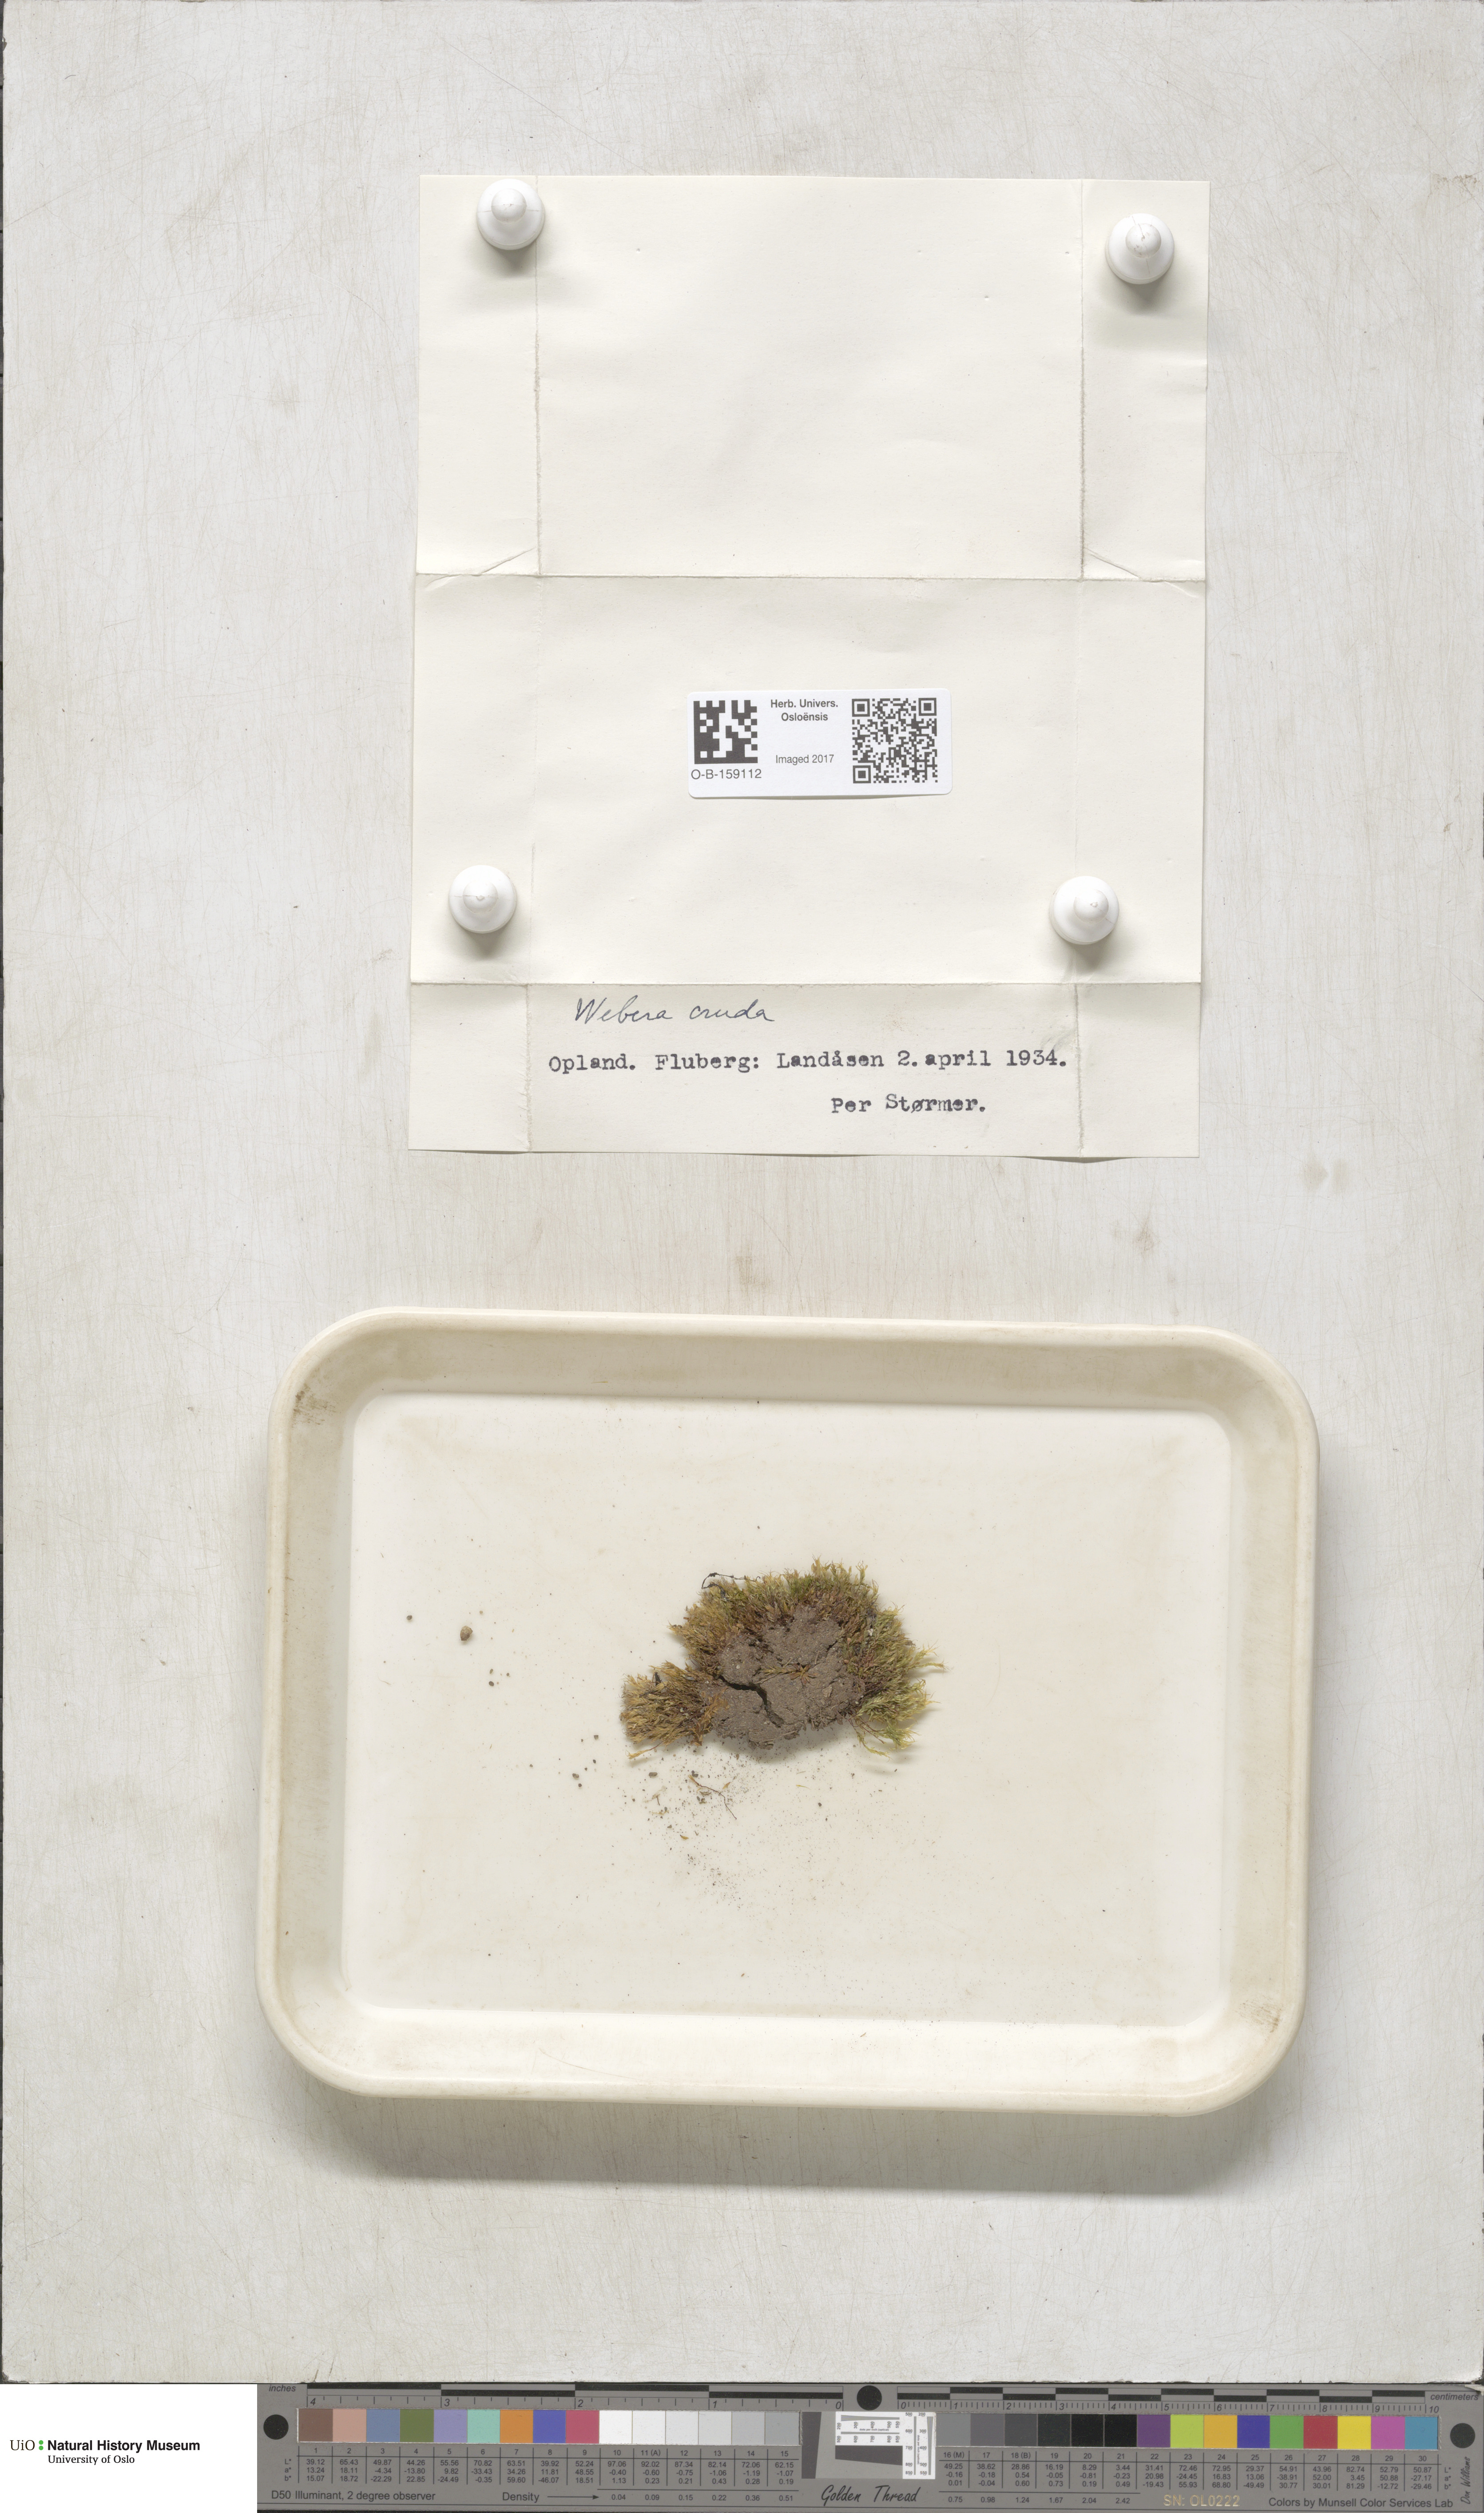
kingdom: Plantae
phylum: Bryophyta
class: Bryopsida
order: Bryales
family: Mniaceae
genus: Pohlia
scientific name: Pohlia cruda
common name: Opal nodding moss
